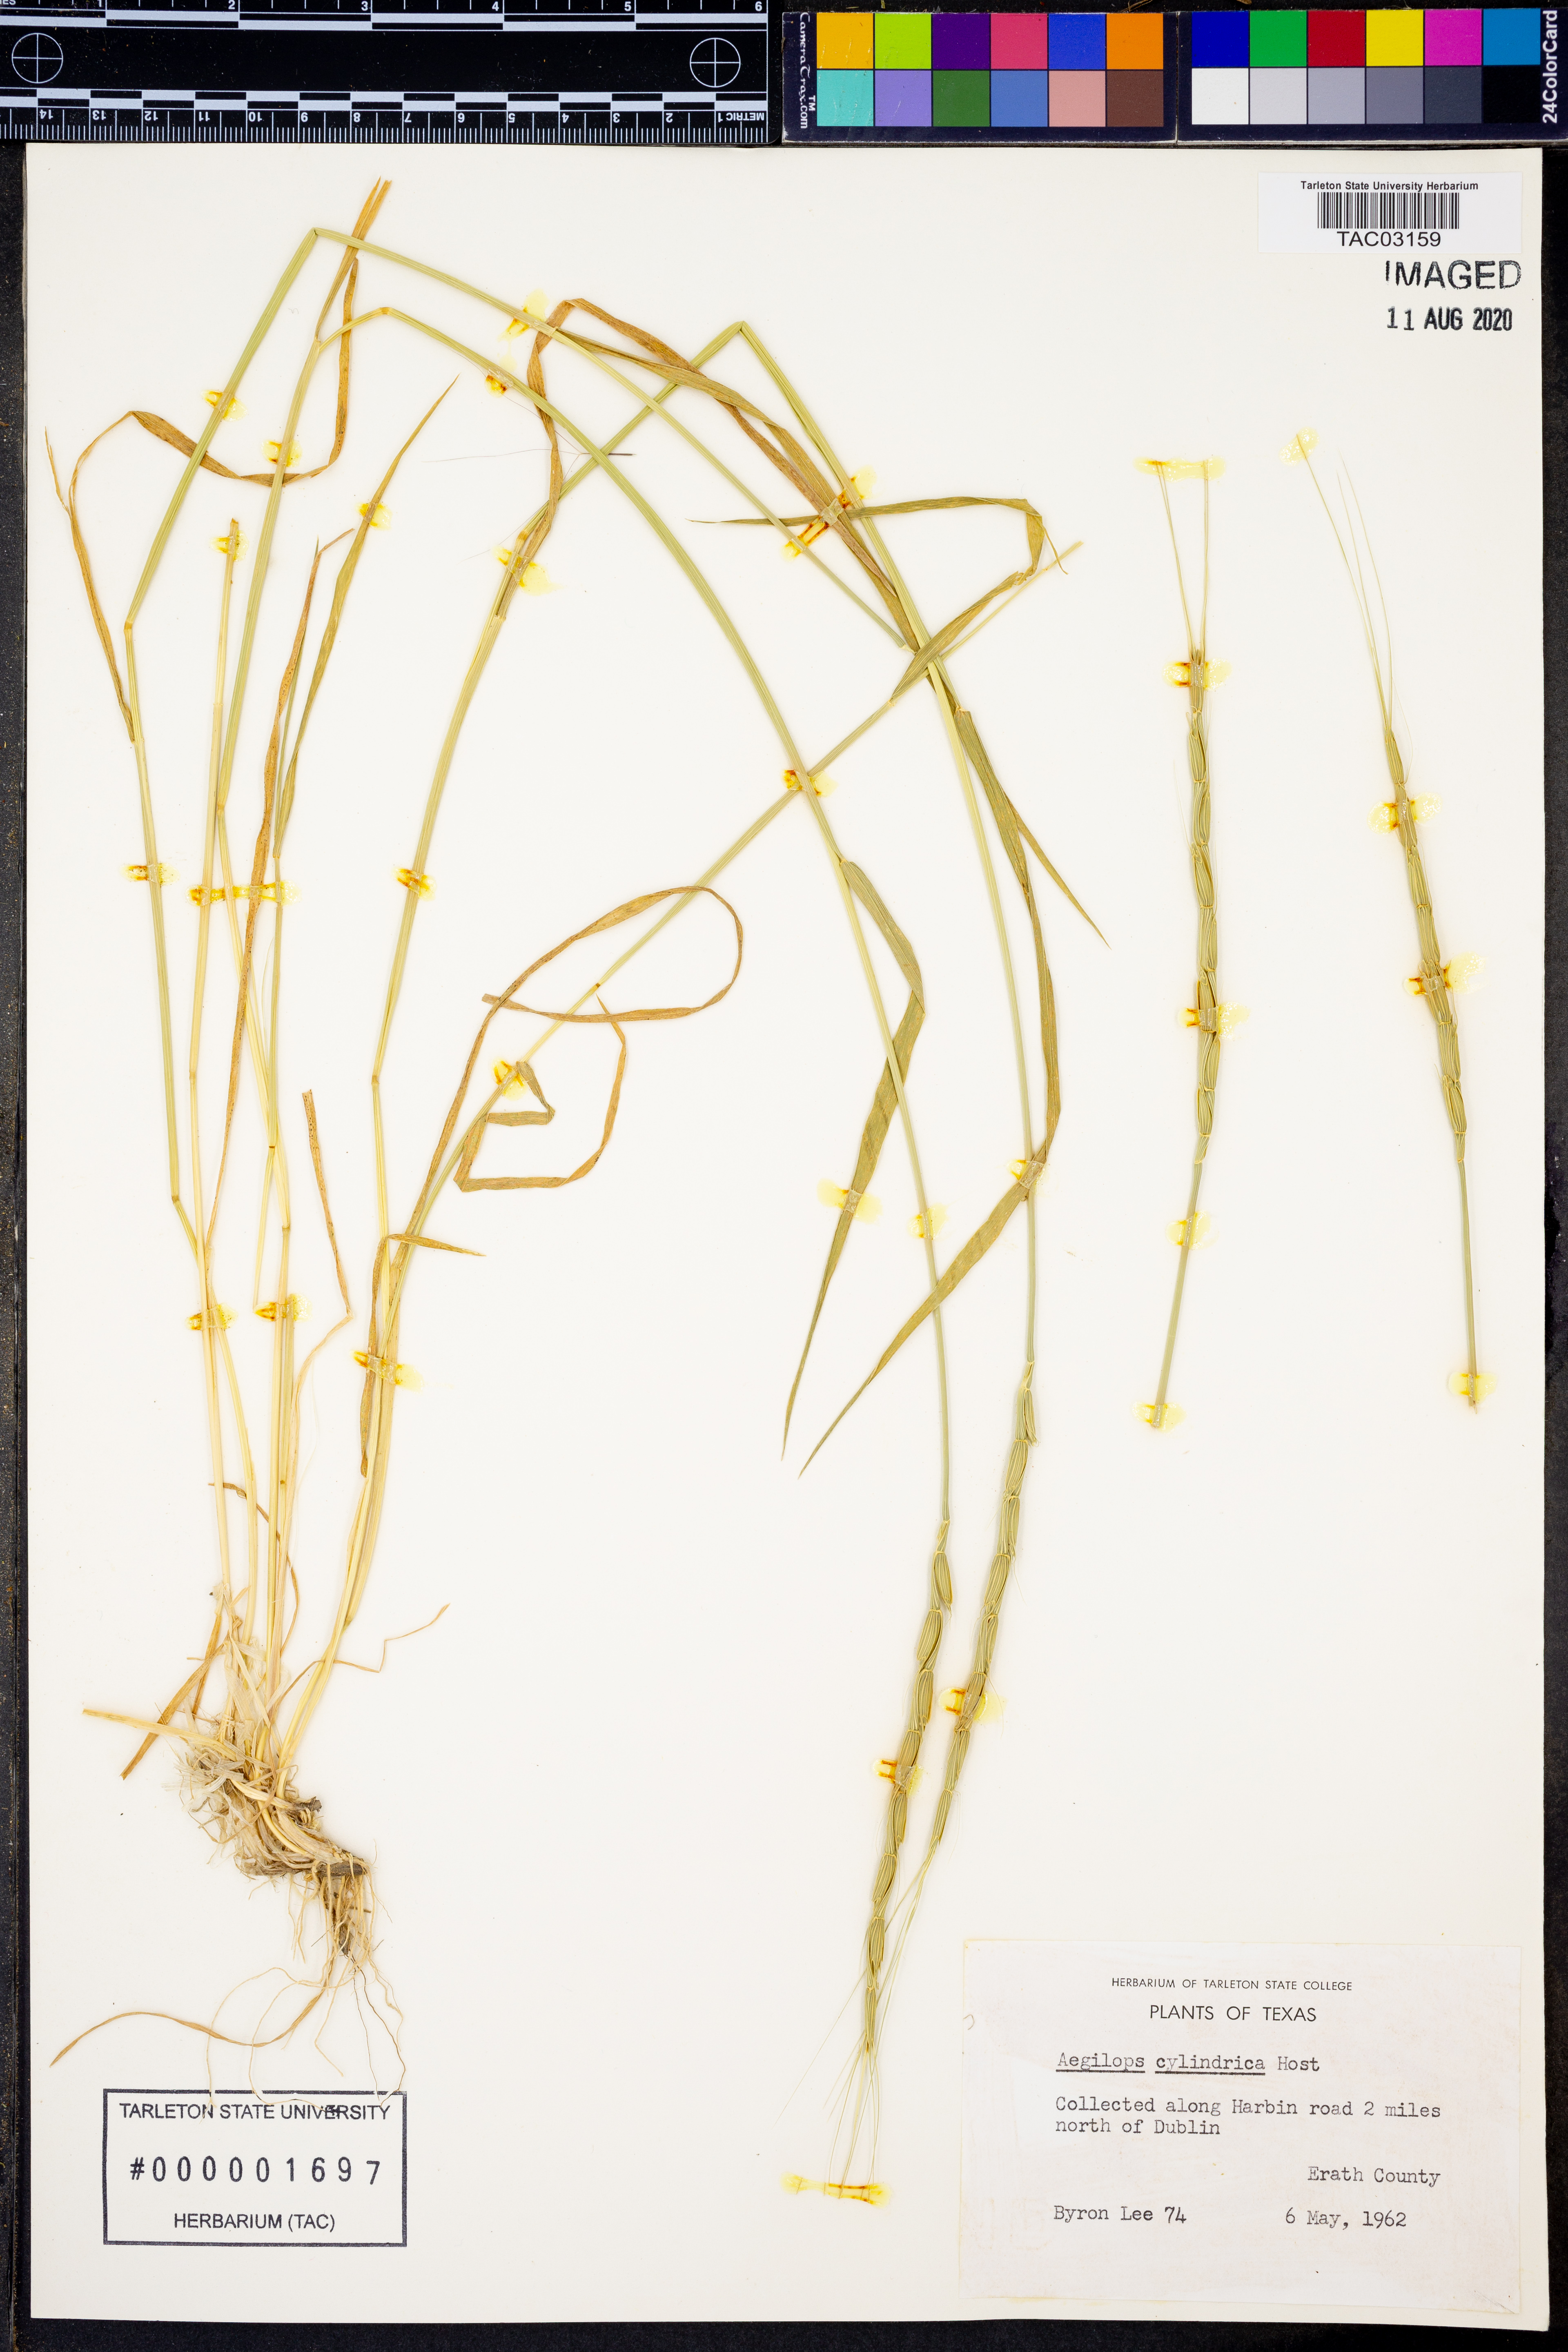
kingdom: Plantae
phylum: Tracheophyta
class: Liliopsida
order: Poales
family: Poaceae
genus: Aegilops
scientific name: Aegilops cylindrica
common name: Jointed goatgrass
